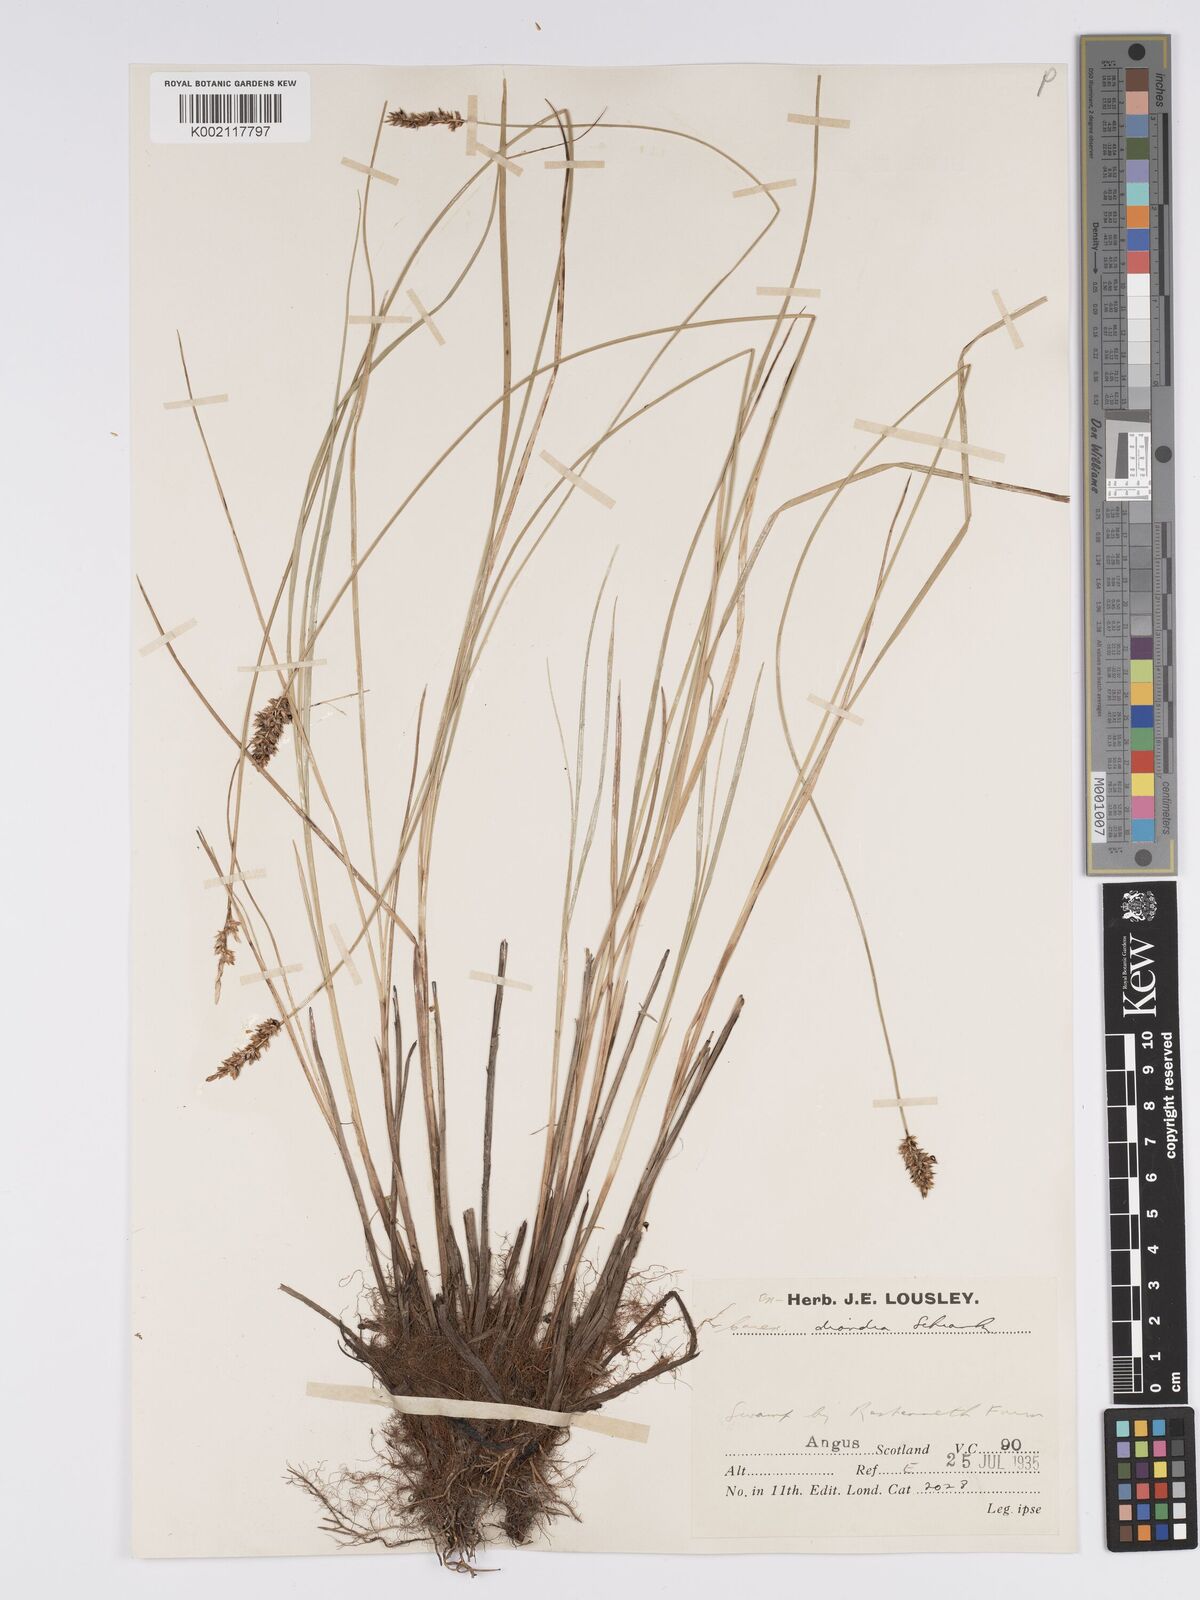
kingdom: Plantae
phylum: Tracheophyta
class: Liliopsida
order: Poales
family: Cyperaceae
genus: Carex
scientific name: Carex diandra
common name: Lesser tussock-sedge
